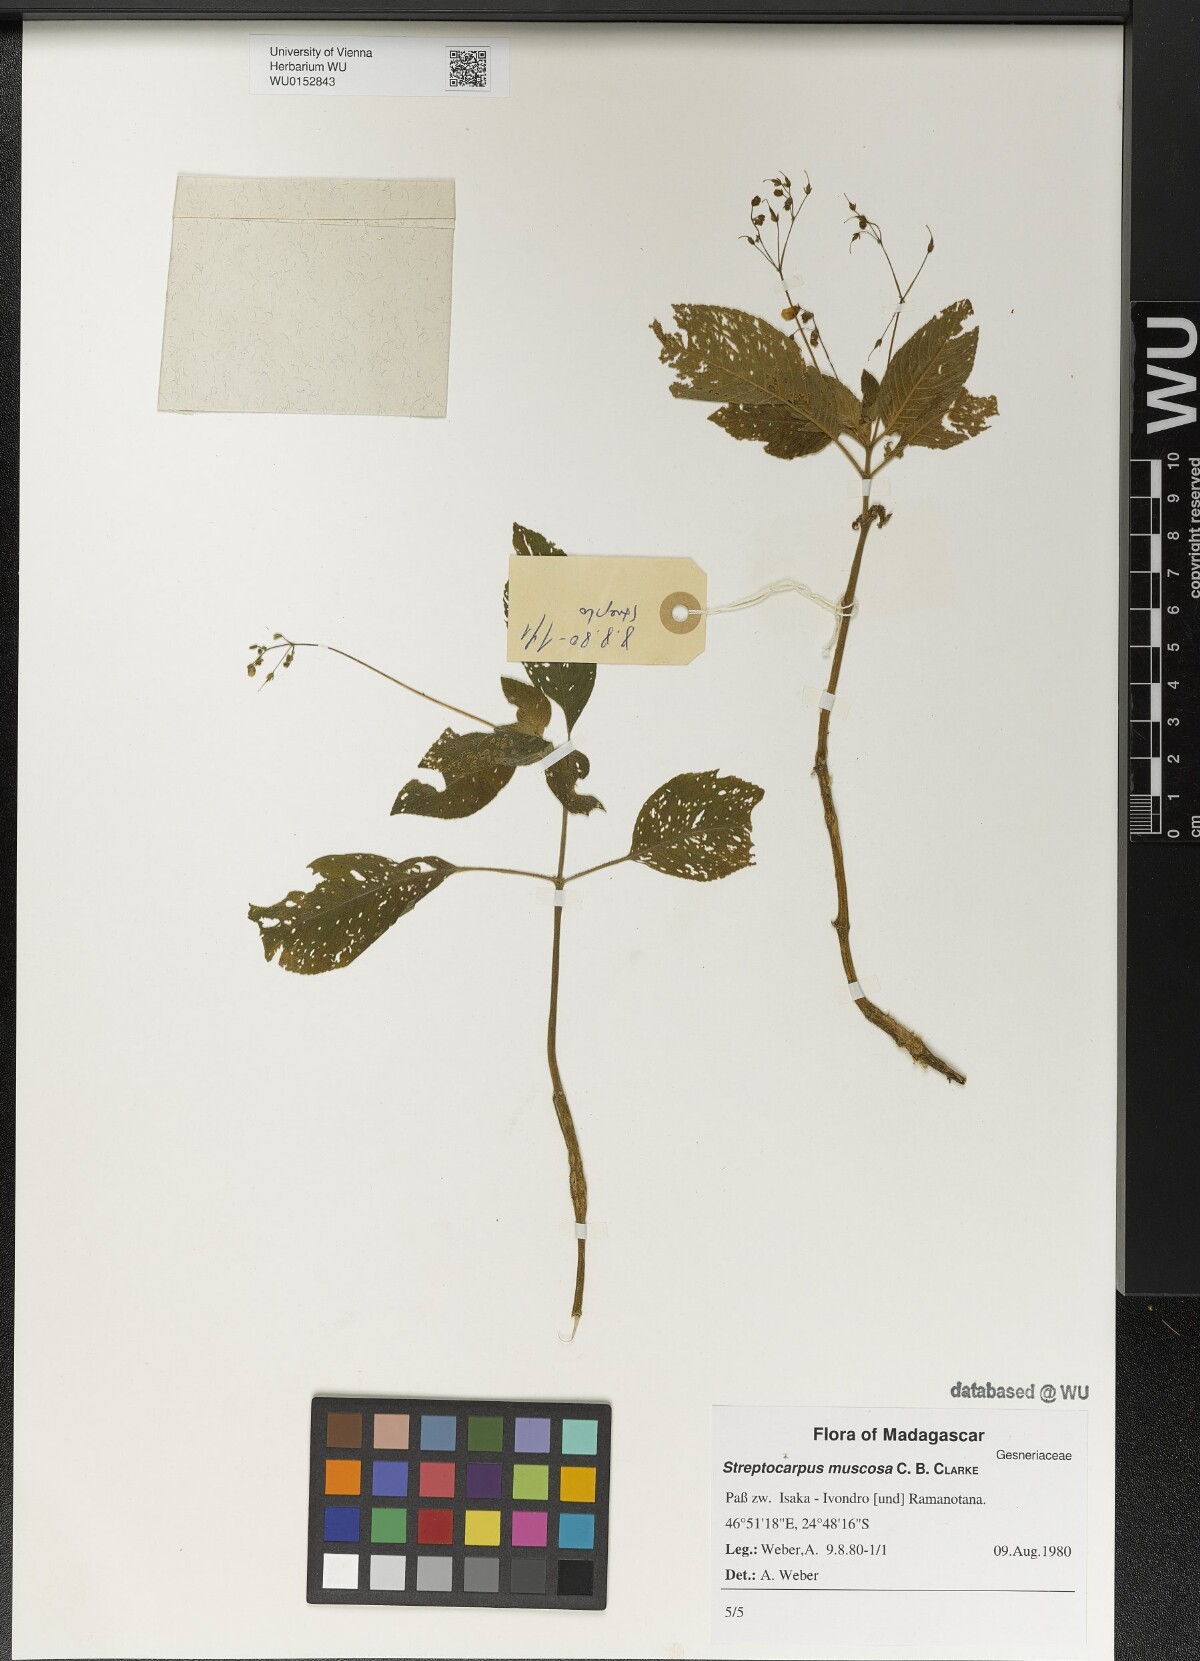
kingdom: Plantae
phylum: Tracheophyta
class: Magnoliopsida
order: Lamiales
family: Gesneriaceae
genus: Streptocarpus
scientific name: Streptocarpus muscosa
